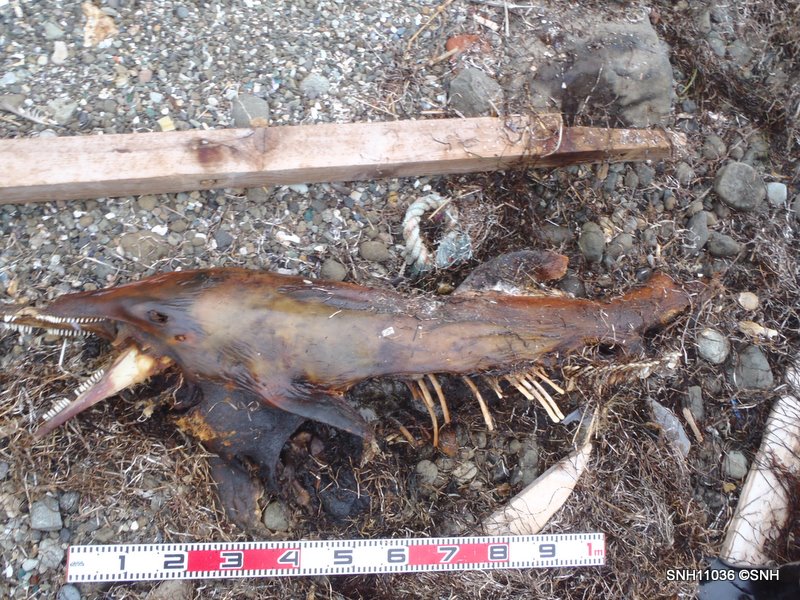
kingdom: Animalia
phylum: Chordata
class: Mammalia
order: Cetacea
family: Delphinidae
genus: Lagenorhynchus
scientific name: Lagenorhynchus obliquidens
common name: Pacific white-sided dolphin
